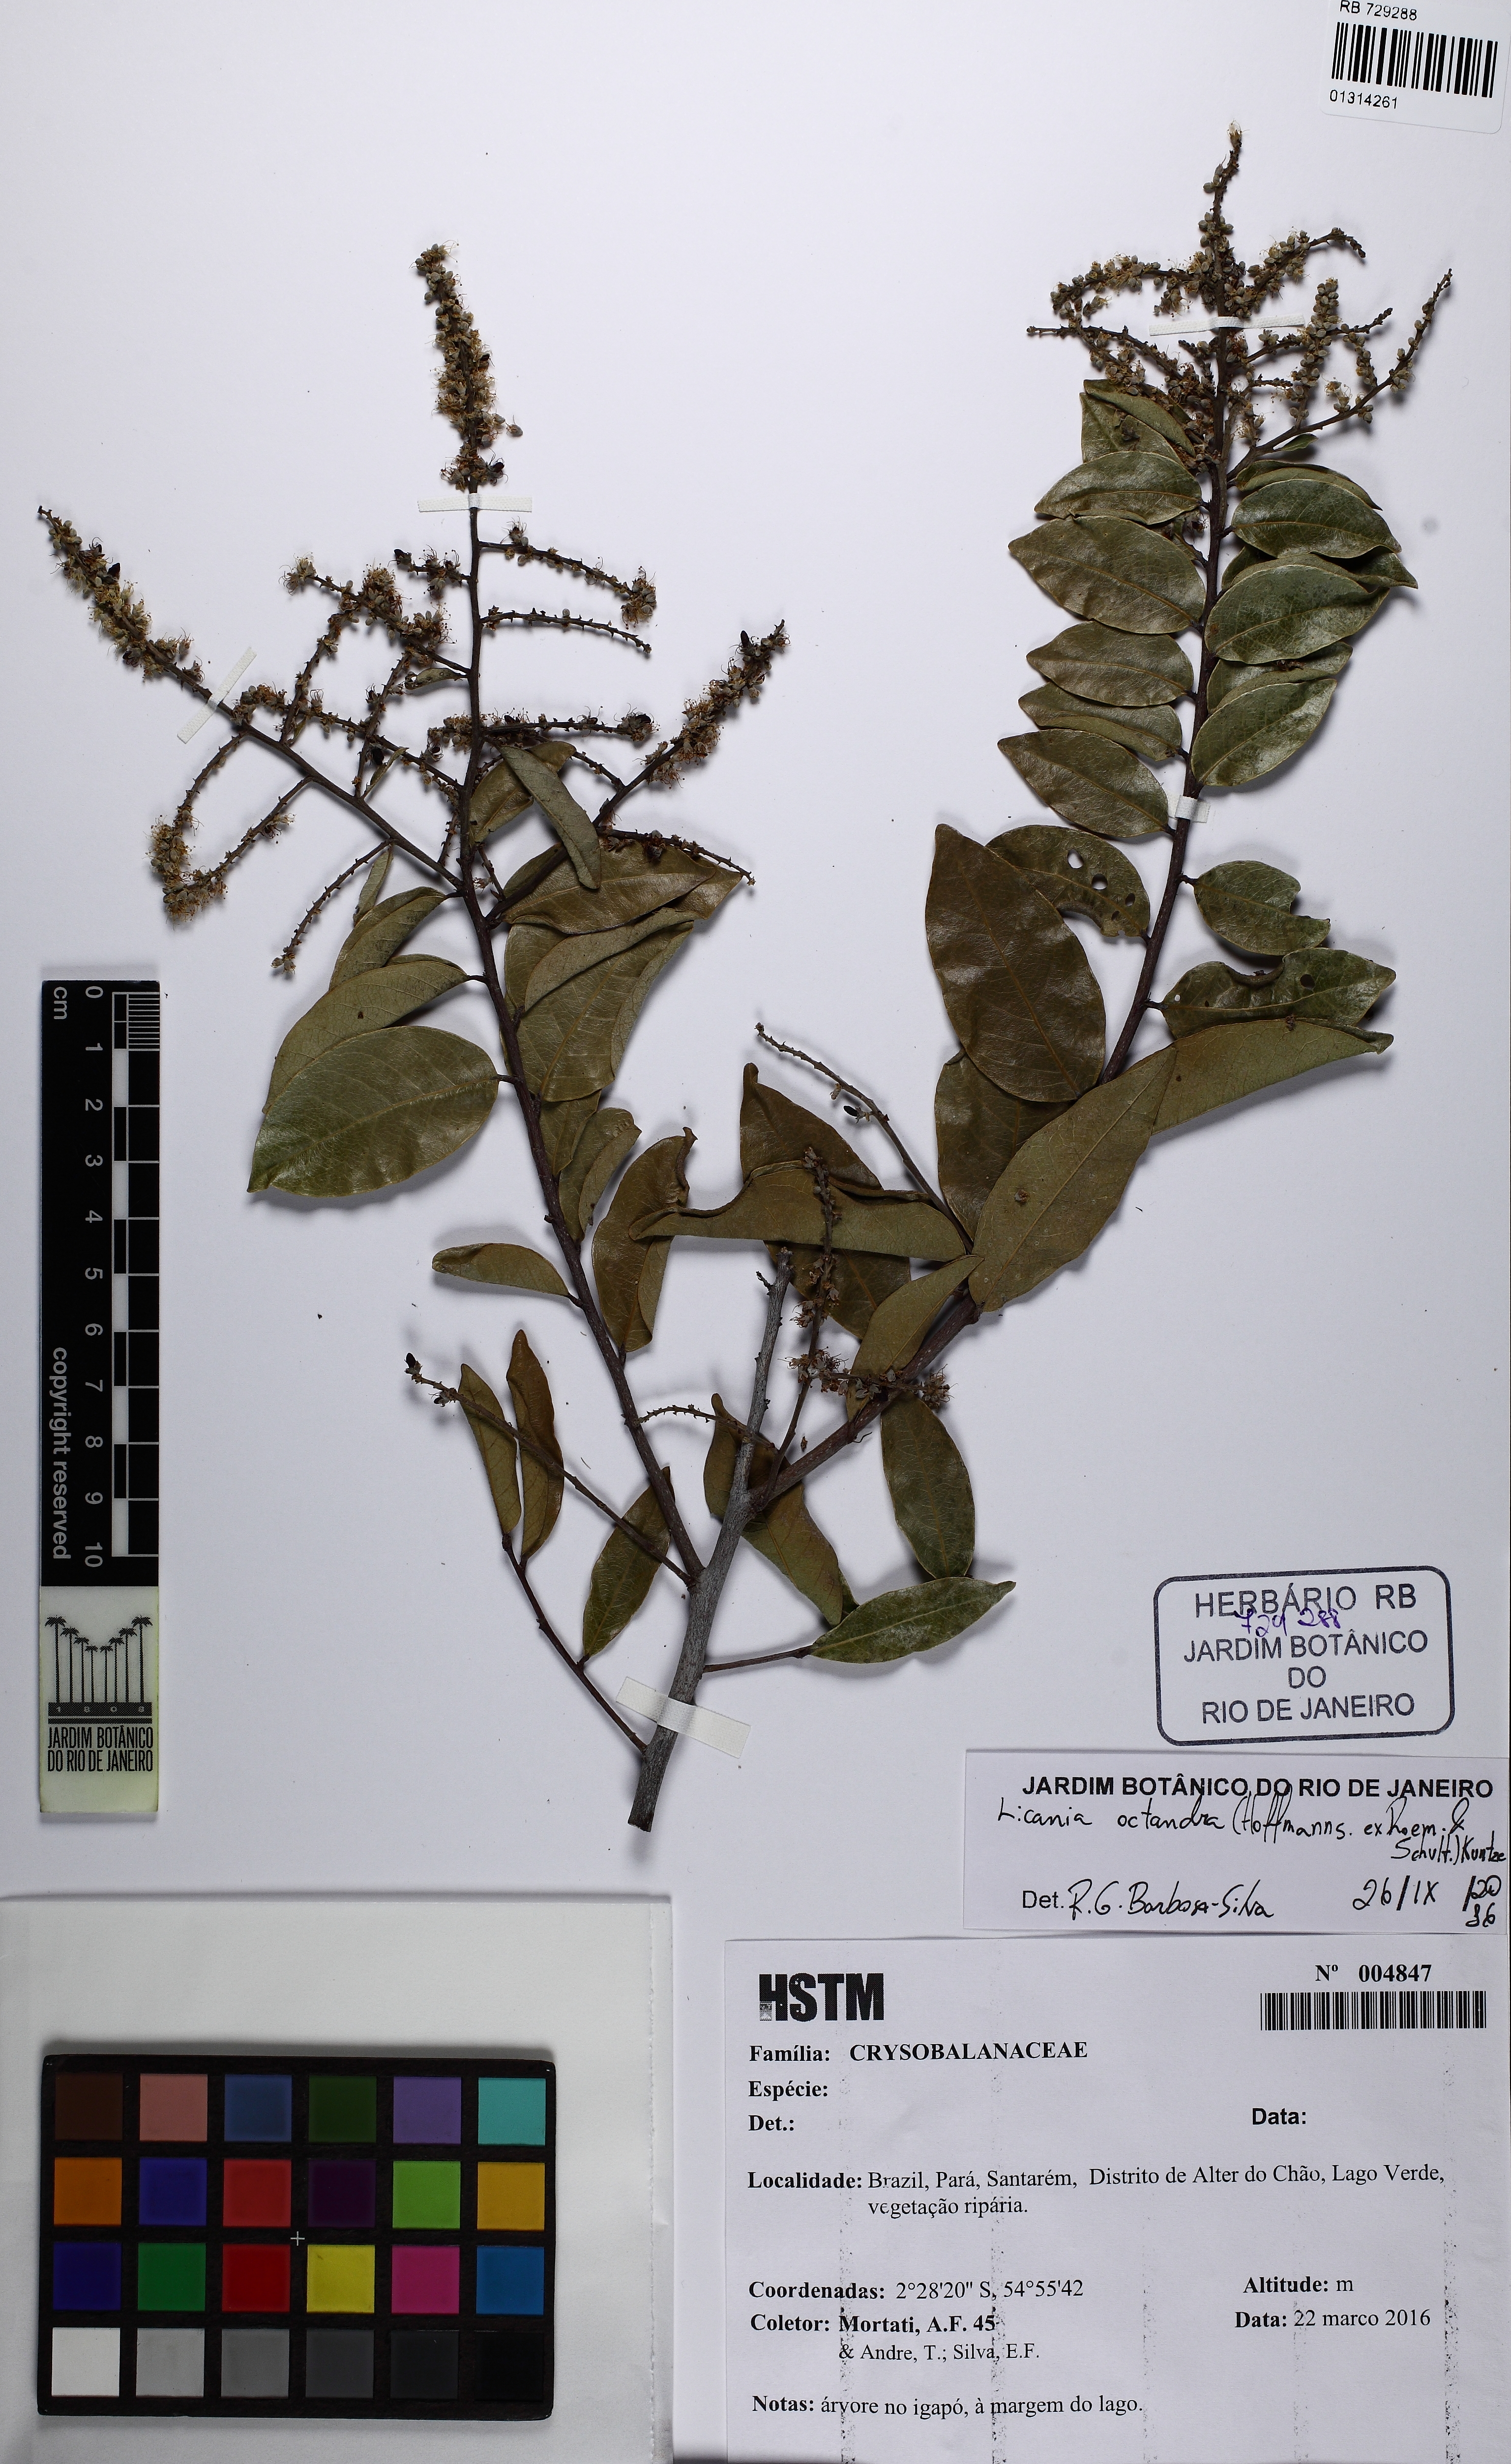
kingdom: Plantae
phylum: Tracheophyta
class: Magnoliopsida
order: Malpighiales
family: Chrysobalanaceae
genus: Leptobalanus
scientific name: Leptobalanus octandrus
